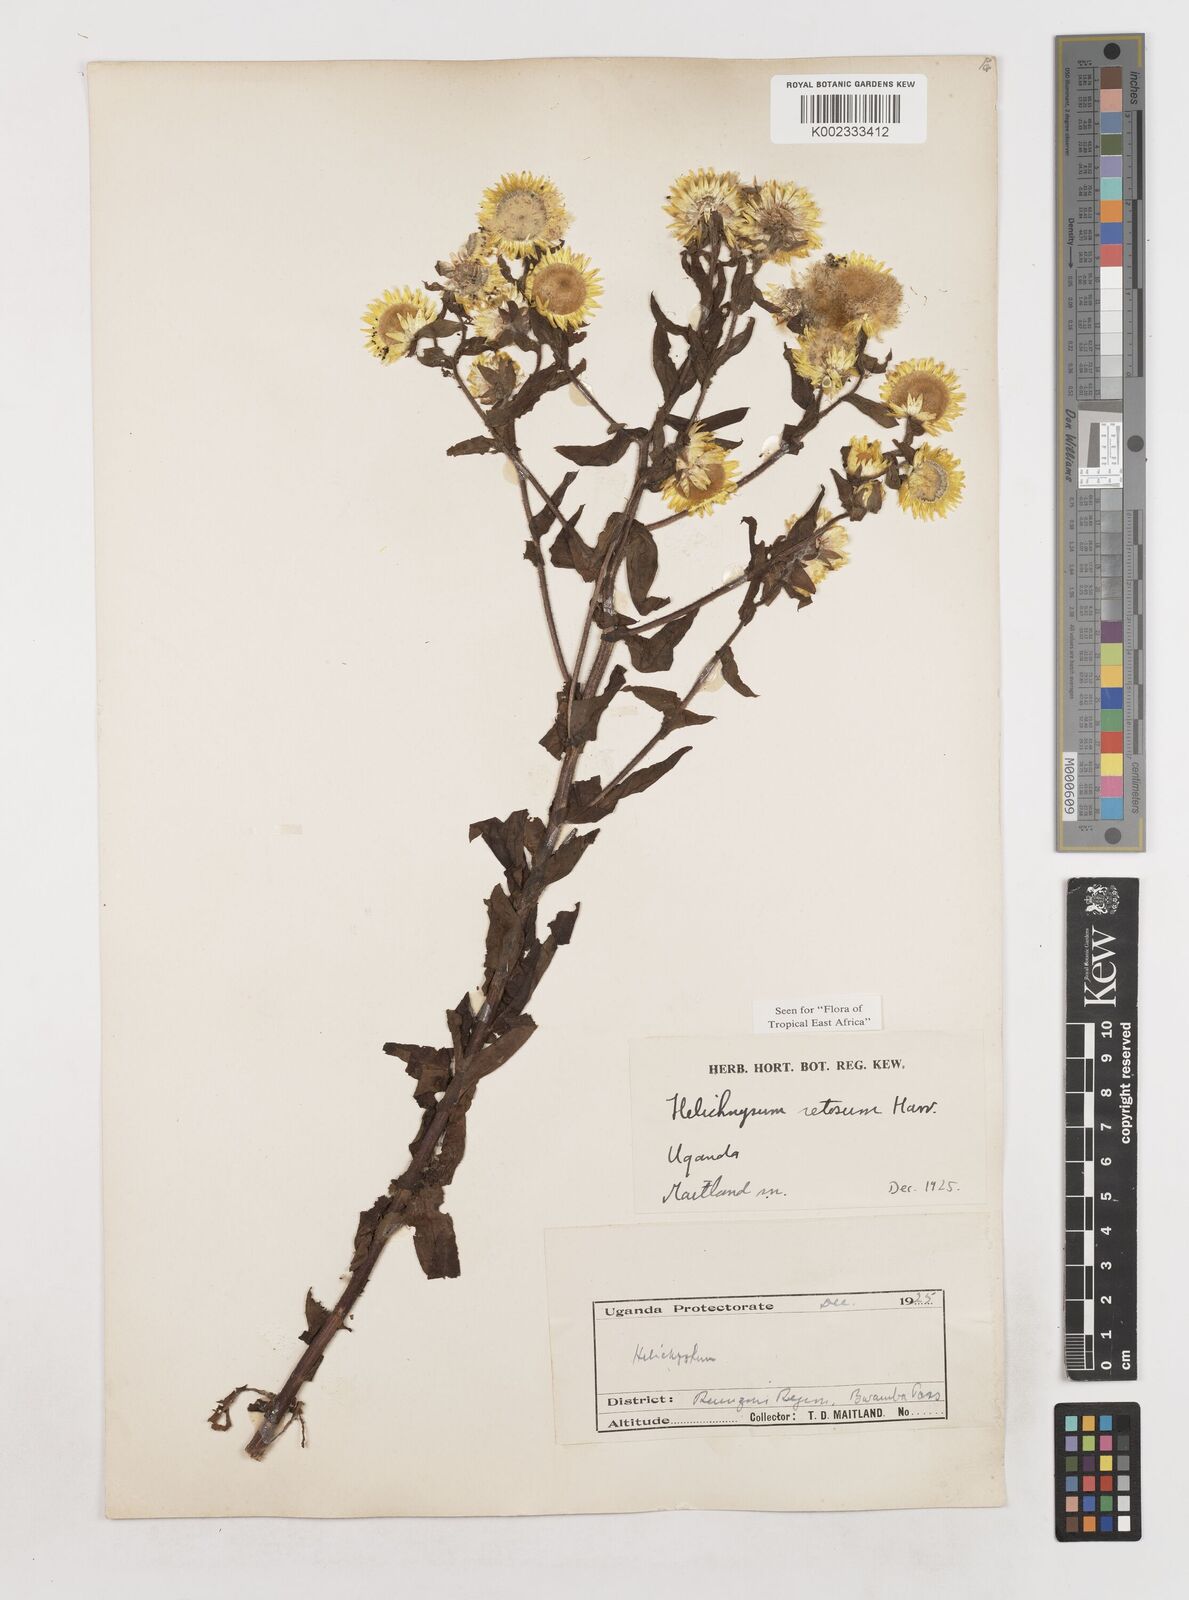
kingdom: Plantae
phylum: Tracheophyta
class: Magnoliopsida
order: Asterales
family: Asteraceae
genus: Helichrysum
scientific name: Helichrysum setosum
